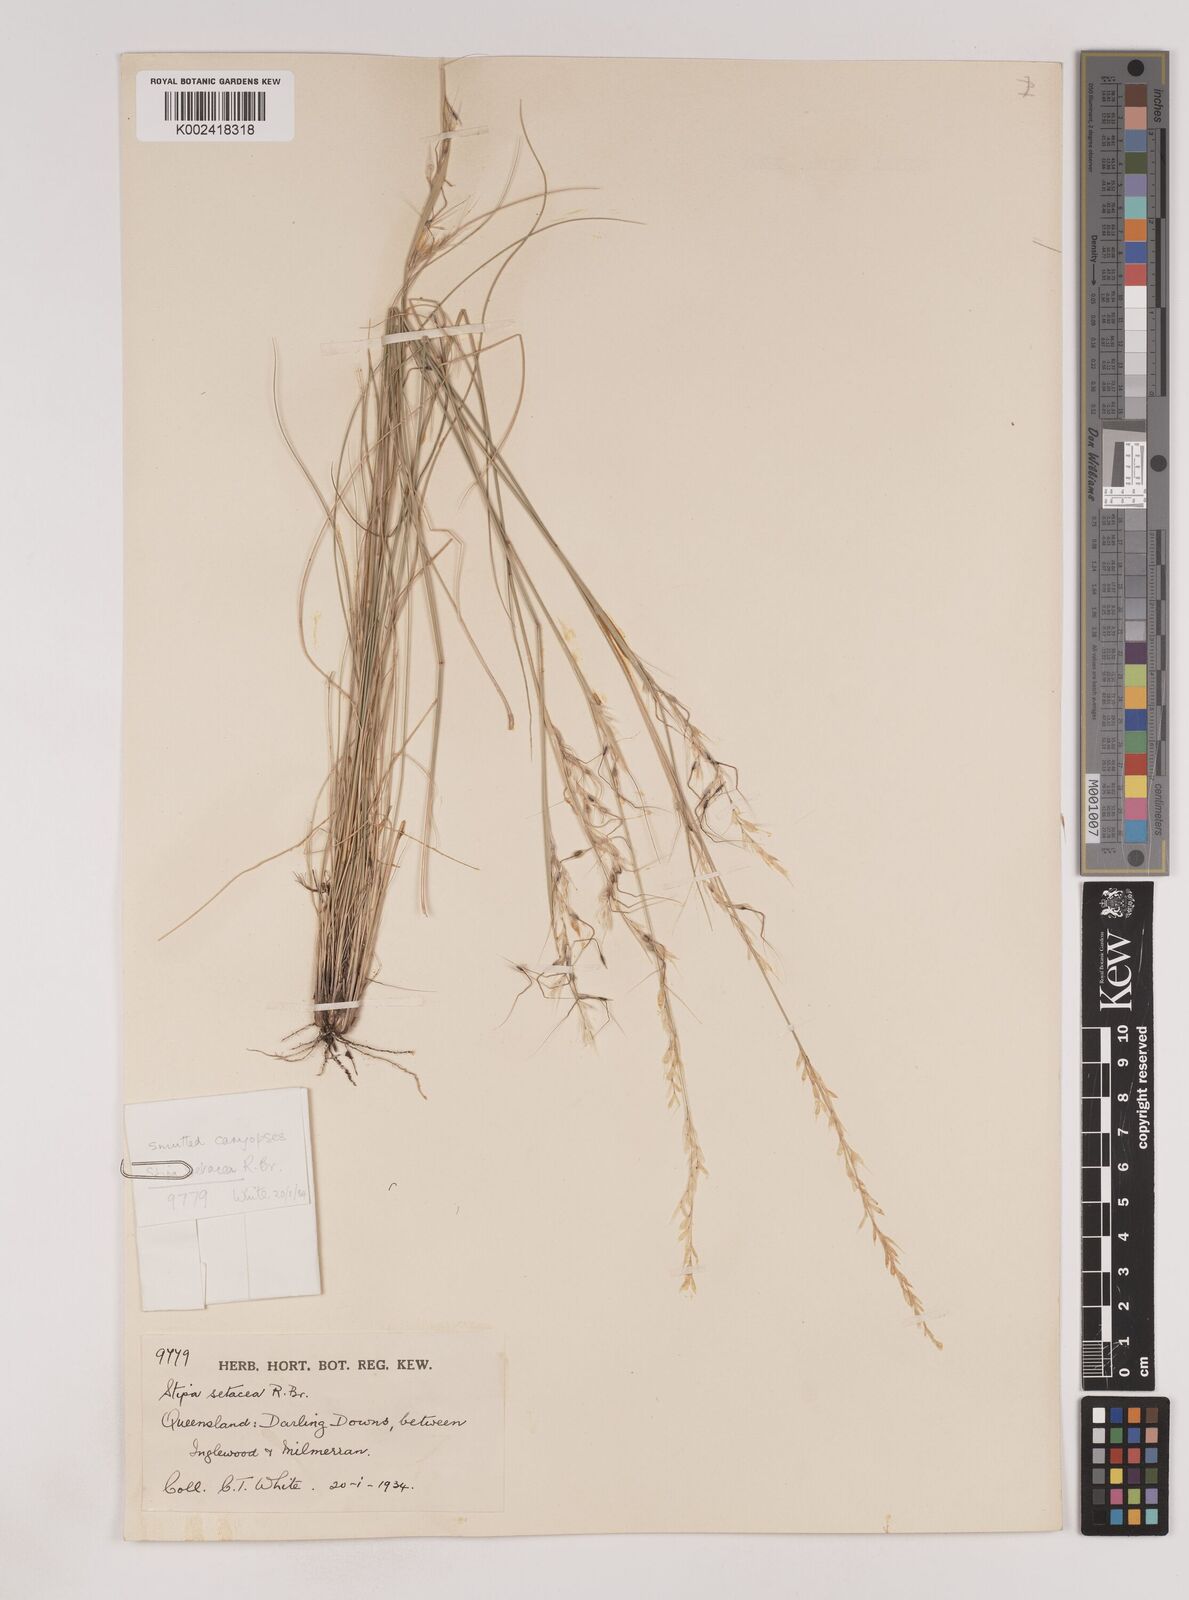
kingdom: Plantae
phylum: Tracheophyta
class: Liliopsida
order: Poales
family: Poaceae
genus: Piptochaetium
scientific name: Piptochaetium
